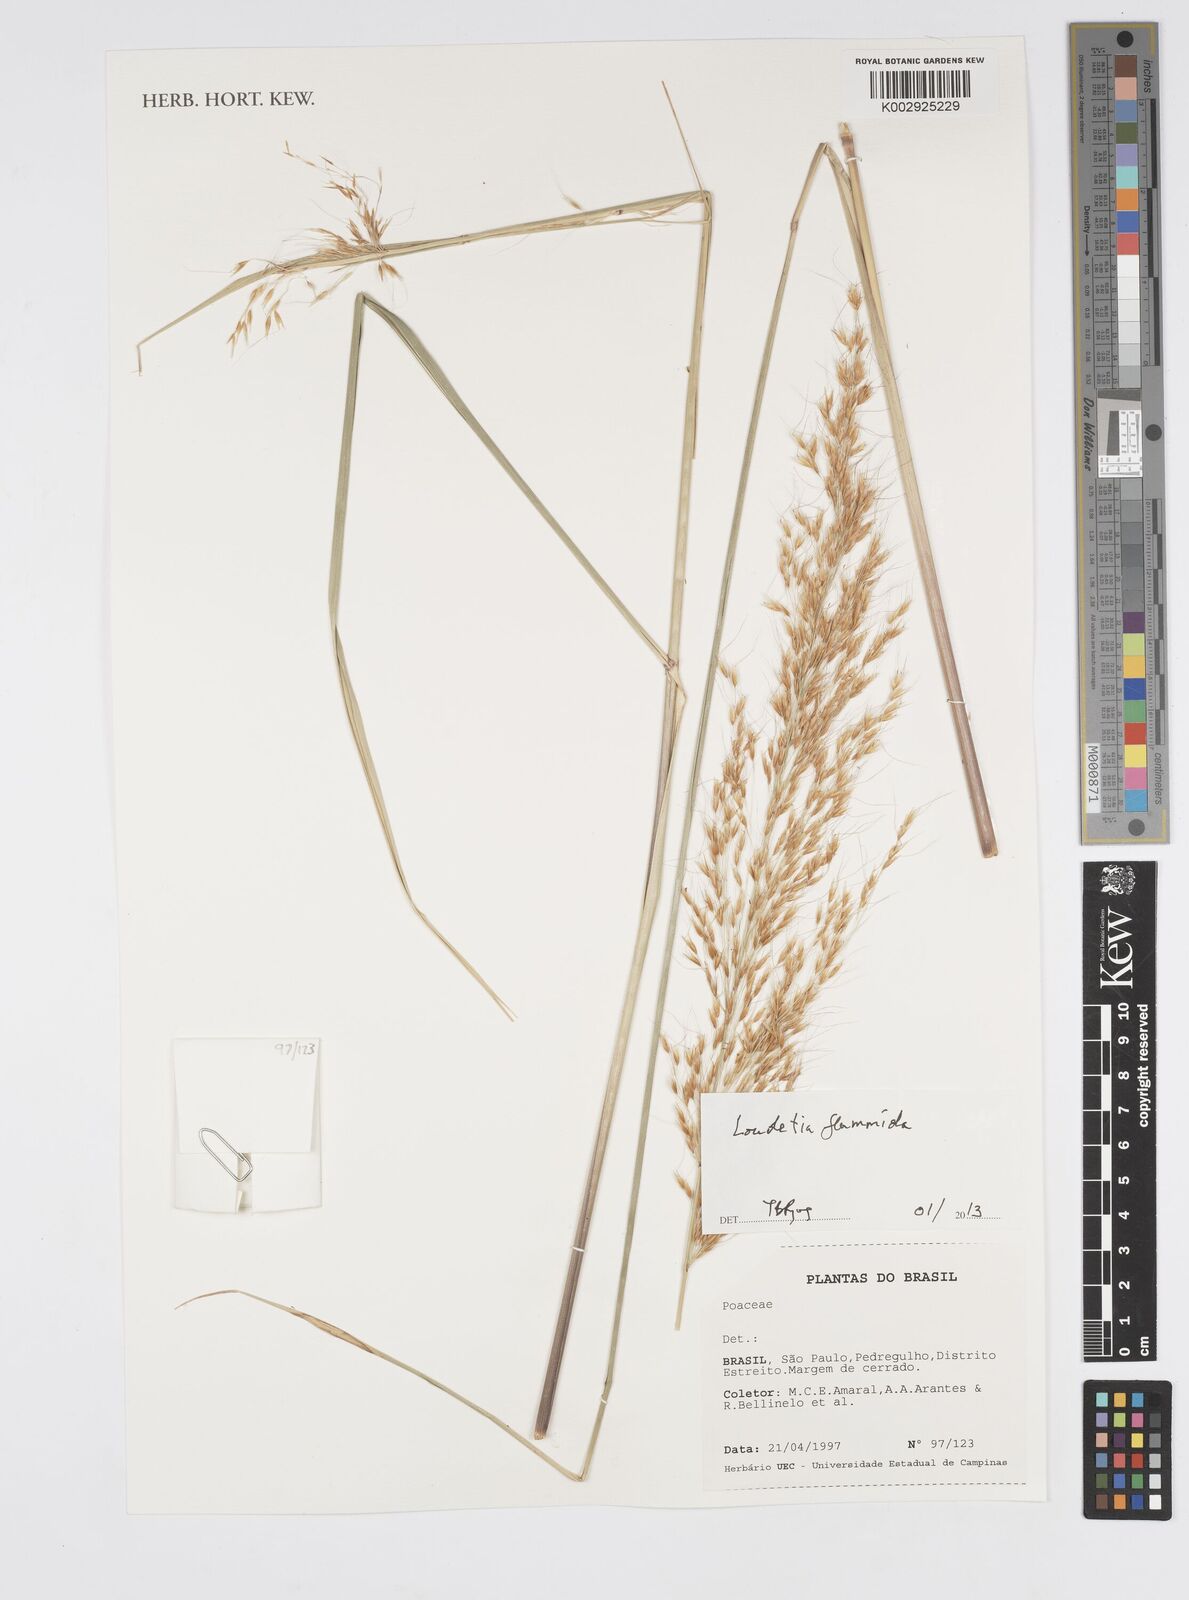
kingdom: Plantae
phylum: Tracheophyta
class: Liliopsida
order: Poales
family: Poaceae
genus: Loudetia
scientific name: Loudetia flammida
